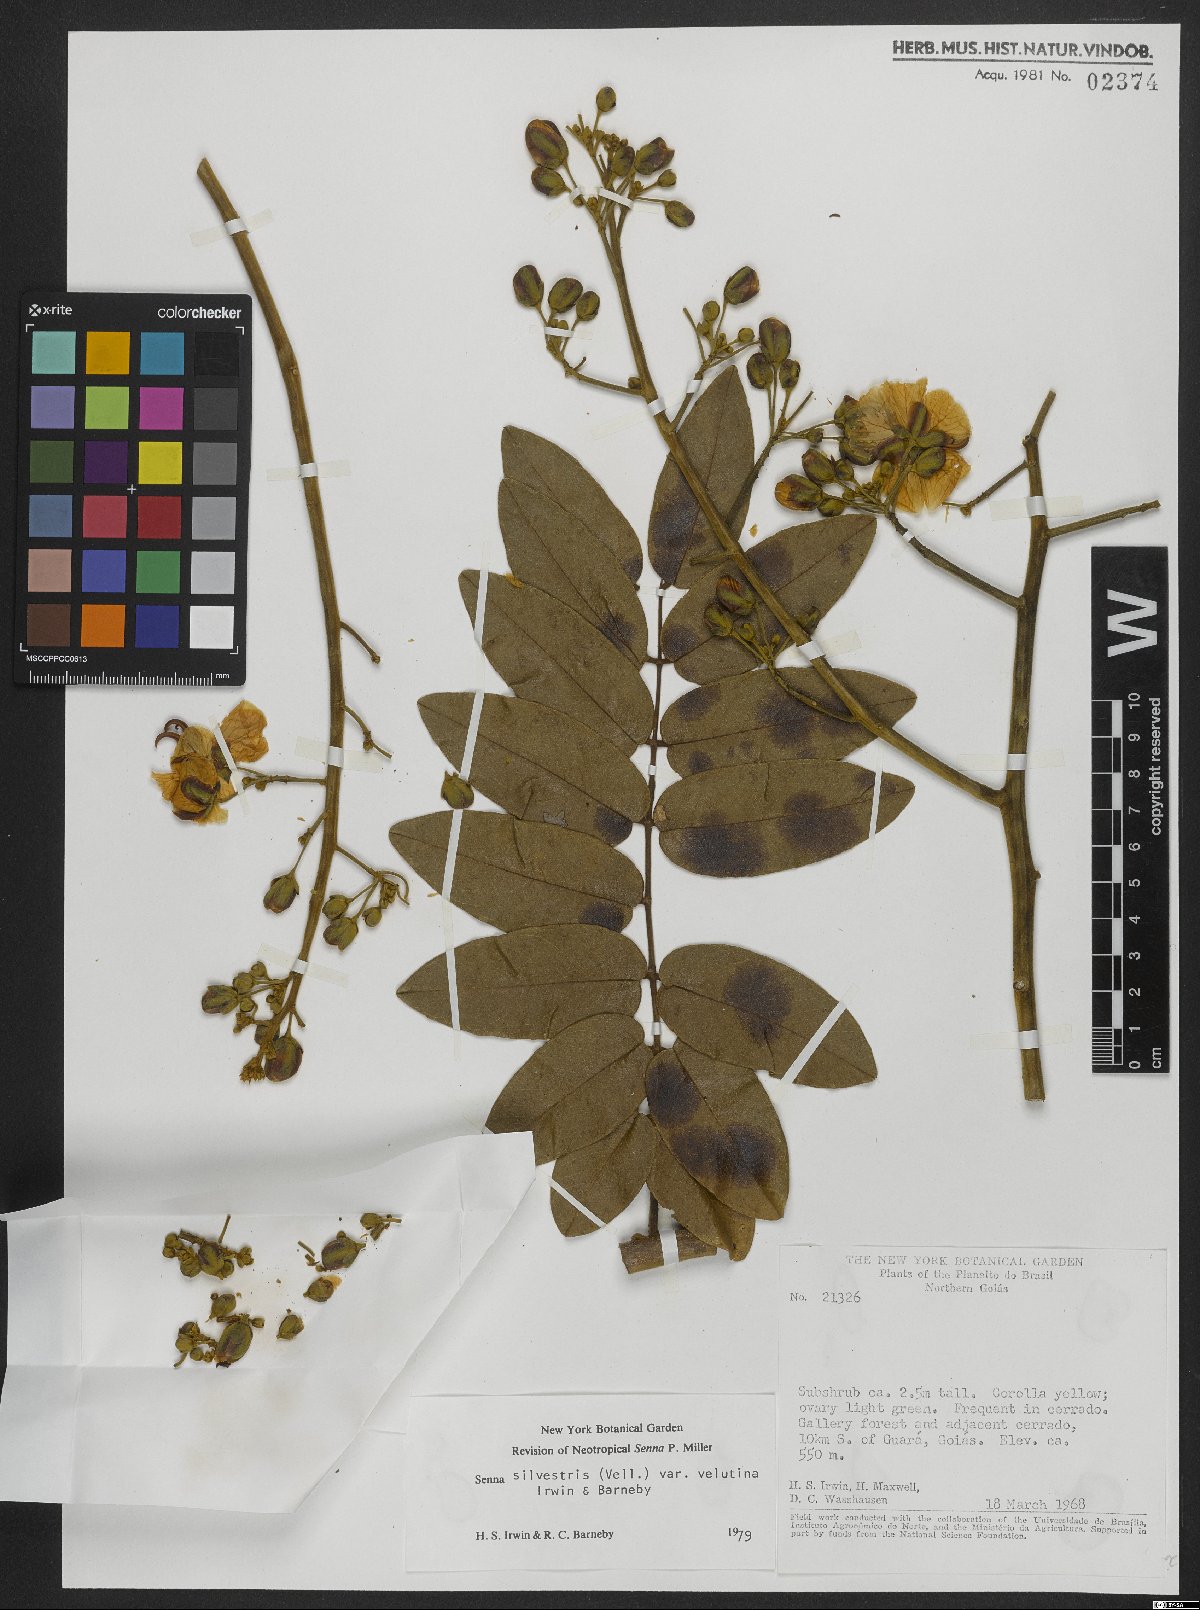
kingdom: Plantae
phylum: Tracheophyta
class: Magnoliopsida
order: Fabales
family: Fabaceae
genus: Senna
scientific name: Senna silvestris
